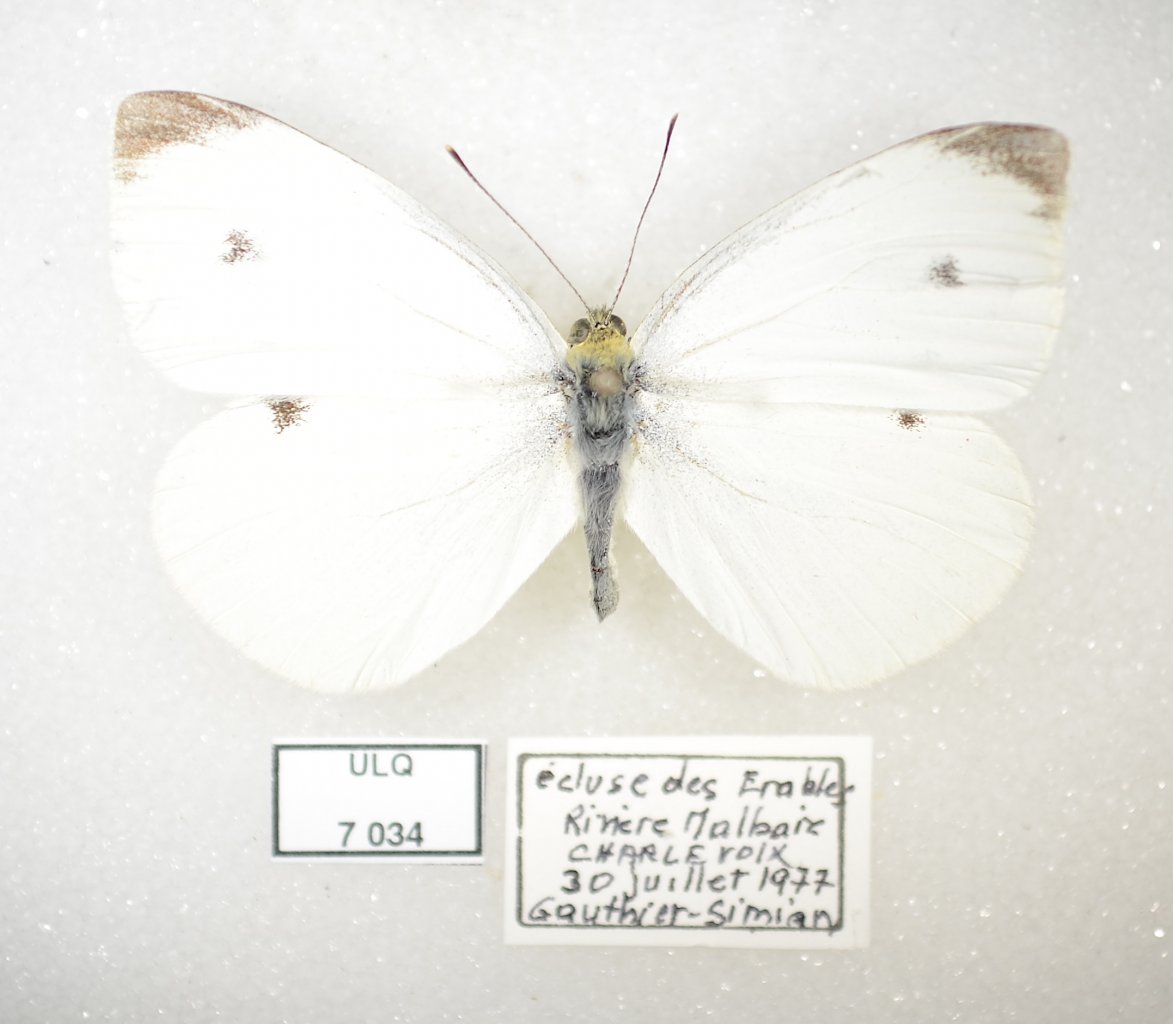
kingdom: Animalia
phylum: Arthropoda
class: Insecta
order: Lepidoptera
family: Pieridae
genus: Pieris
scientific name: Pieris rapae
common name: Cabbage White
